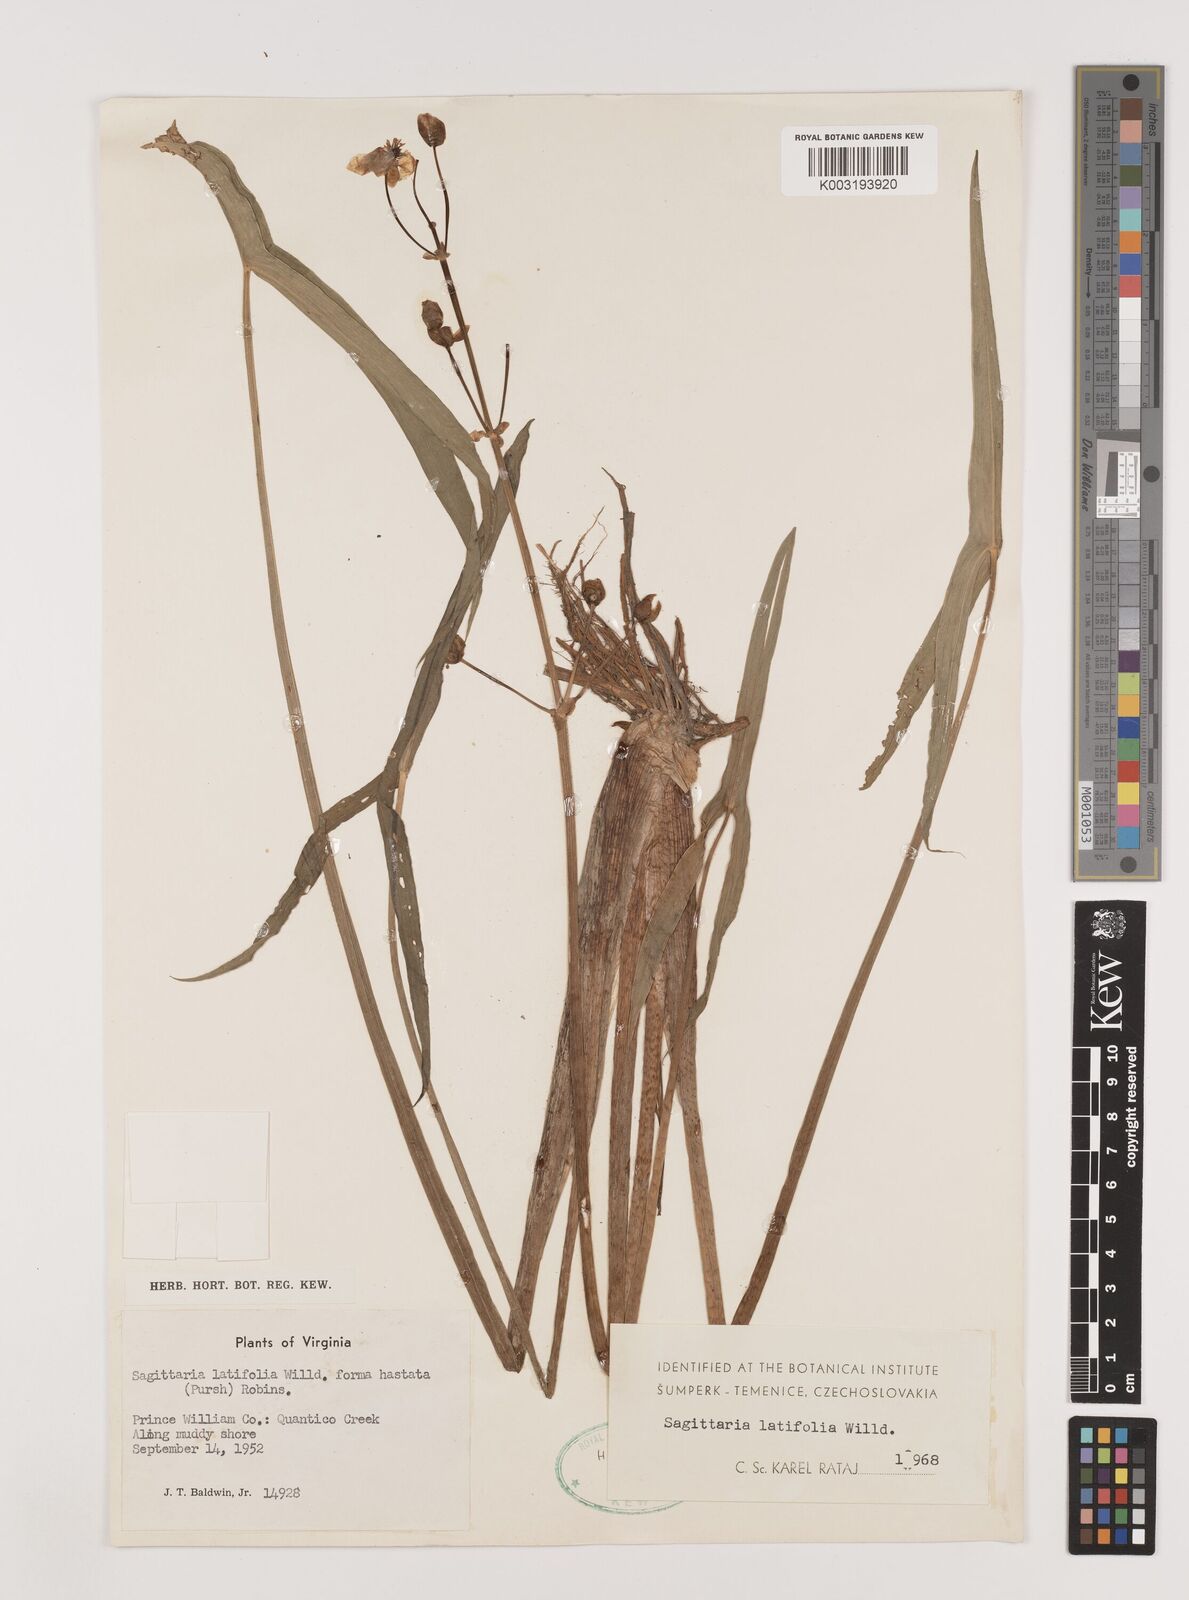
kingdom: Plantae
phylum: Tracheophyta
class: Liliopsida
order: Alismatales
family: Alismataceae
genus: Sagittaria
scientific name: Sagittaria latifolia
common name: Duck-potato
